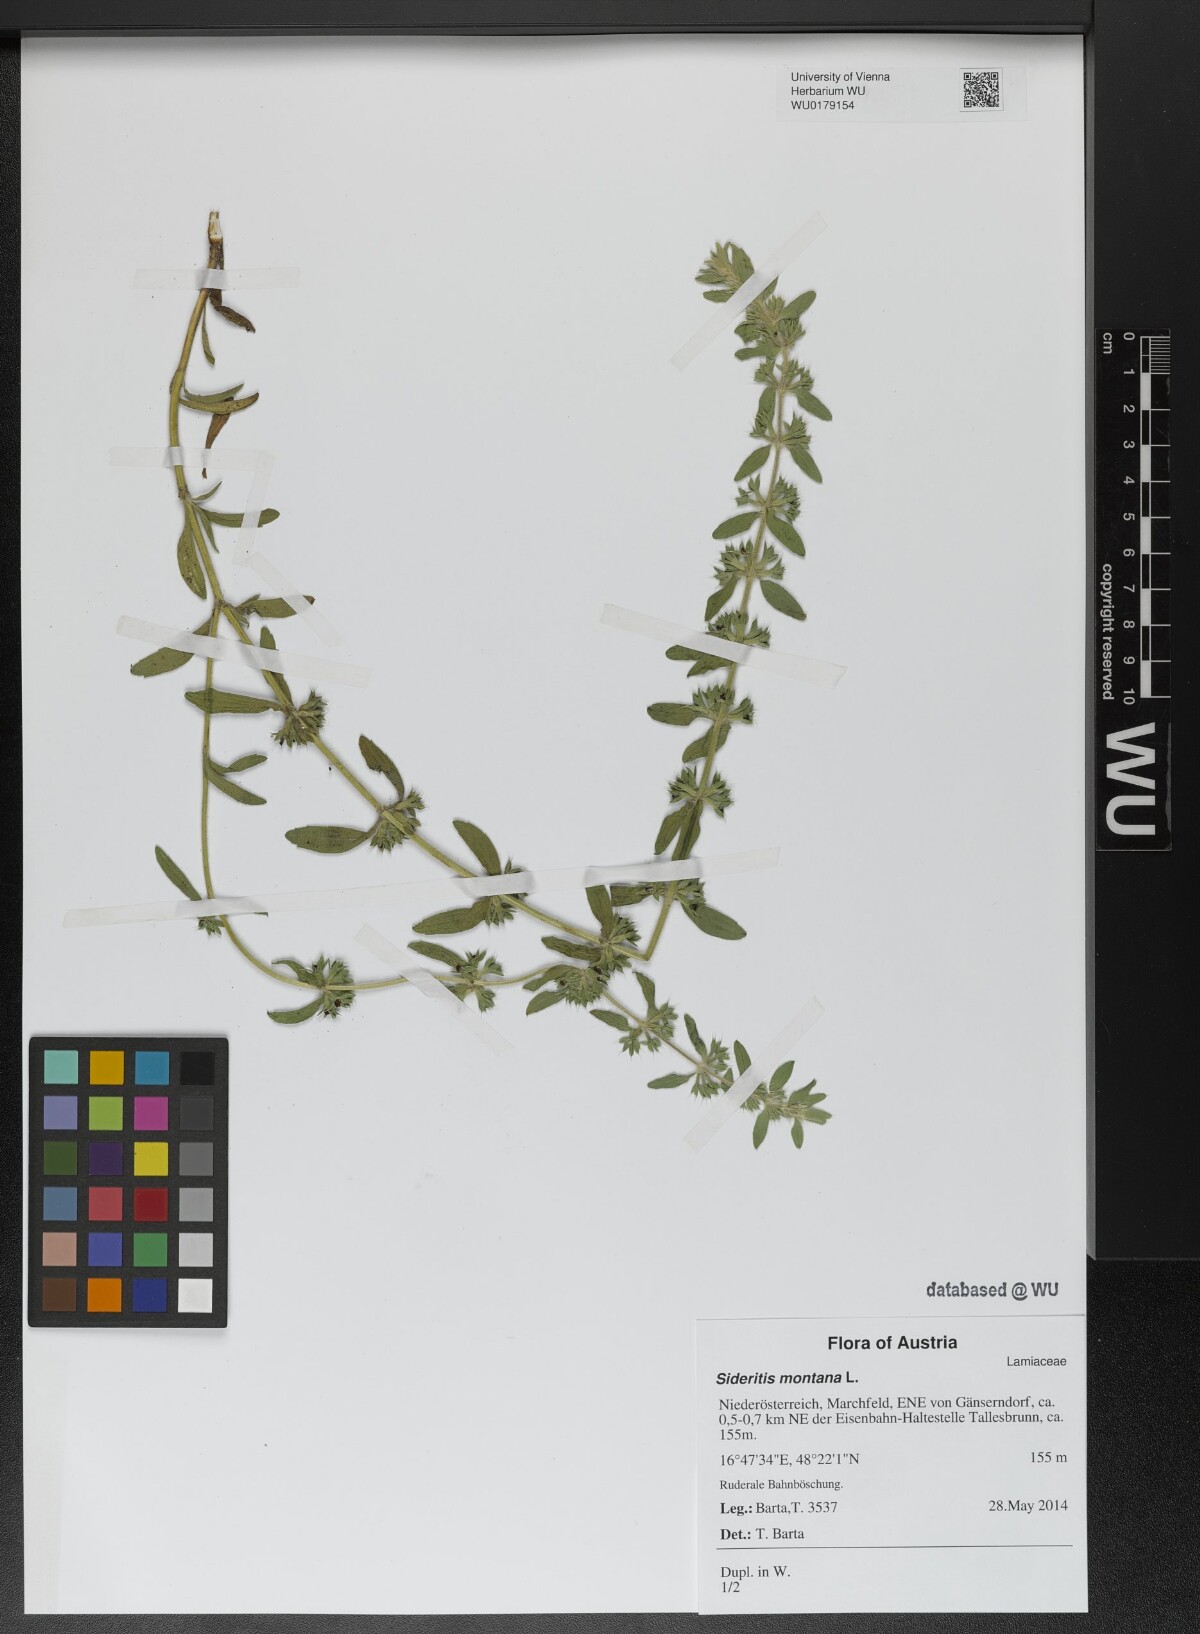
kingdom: Plantae
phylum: Tracheophyta
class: Magnoliopsida
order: Lamiales
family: Lamiaceae
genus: Sideritis
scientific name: Sideritis montana
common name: Mountain ironwort
